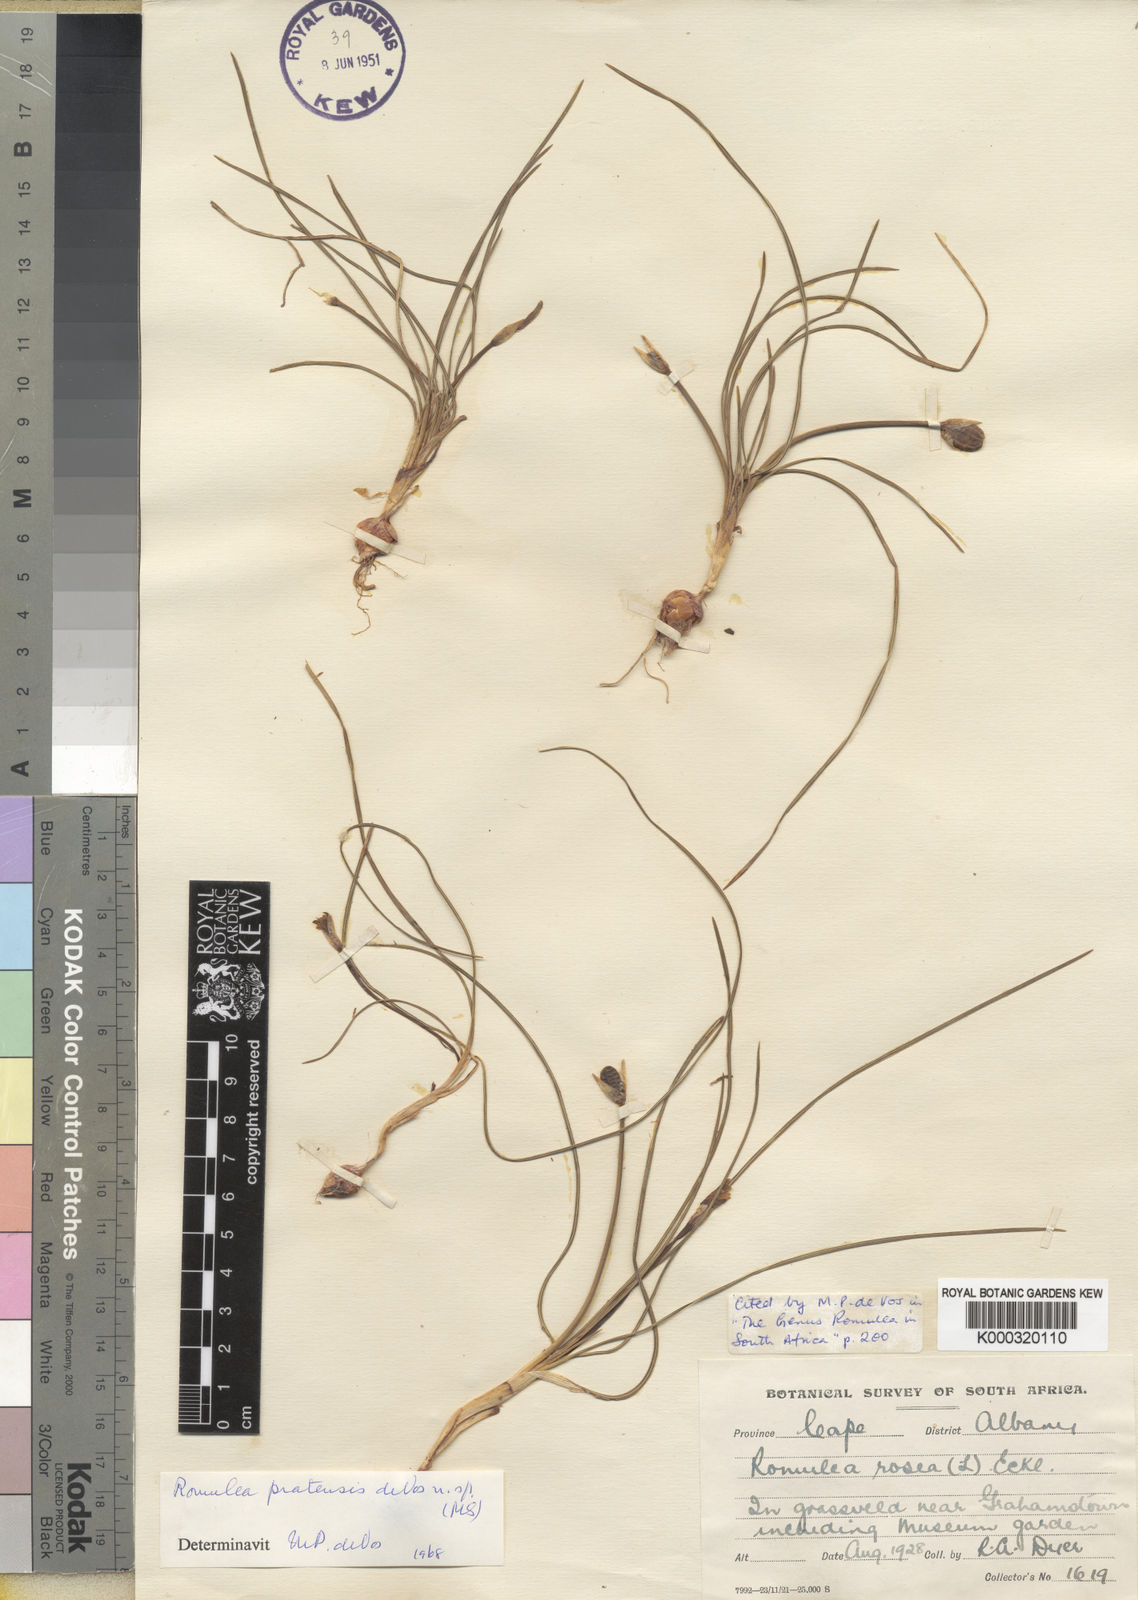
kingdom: Plantae
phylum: Tracheophyta
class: Liliopsida
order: Asparagales
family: Iridaceae
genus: Romulea
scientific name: Romulea pratensis
